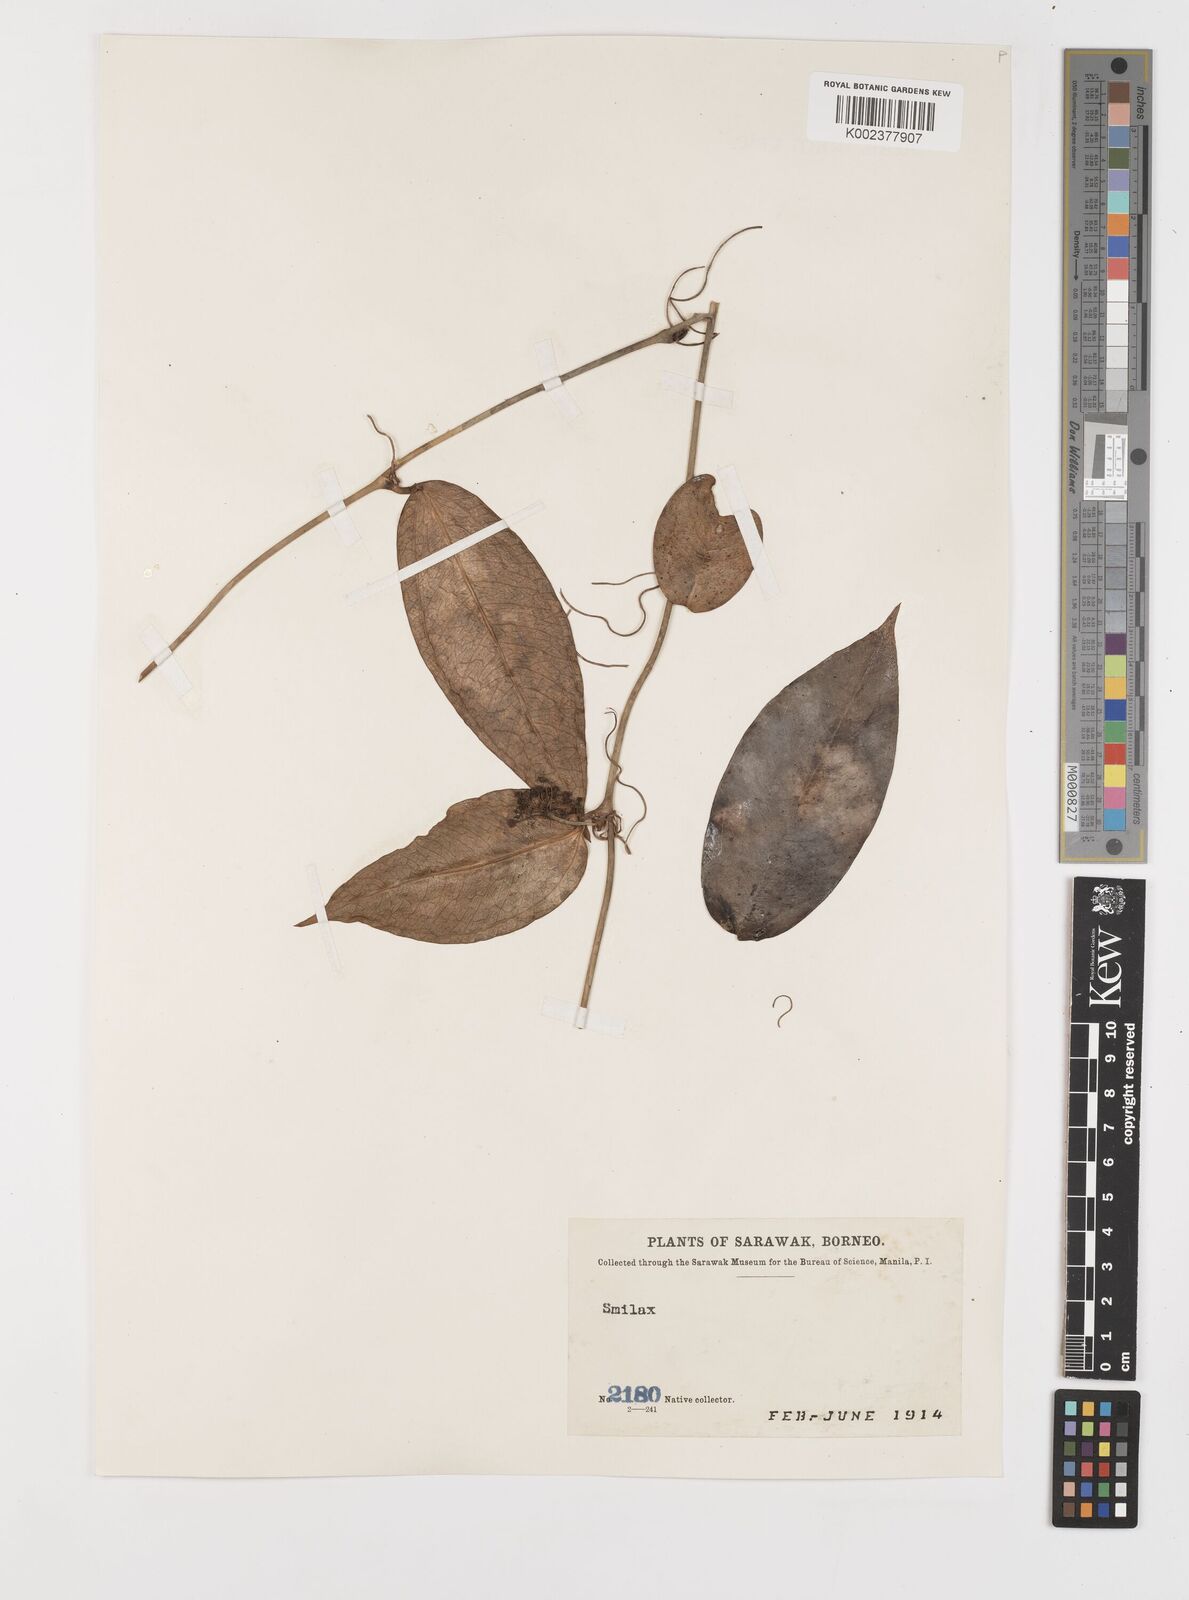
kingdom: Plantae
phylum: Tracheophyta
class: Liliopsida
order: Liliales
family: Smilacaceae
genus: Smilax
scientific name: Smilax
